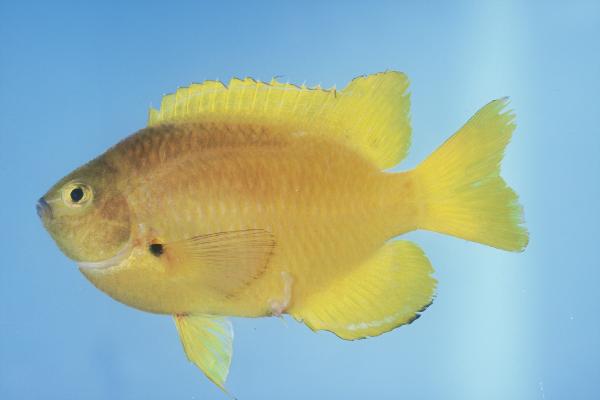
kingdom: Animalia
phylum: Chordata
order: Perciformes
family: Pomacentridae
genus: Pomacentrus
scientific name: Pomacentrus pikei
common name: Blacklip damsel
